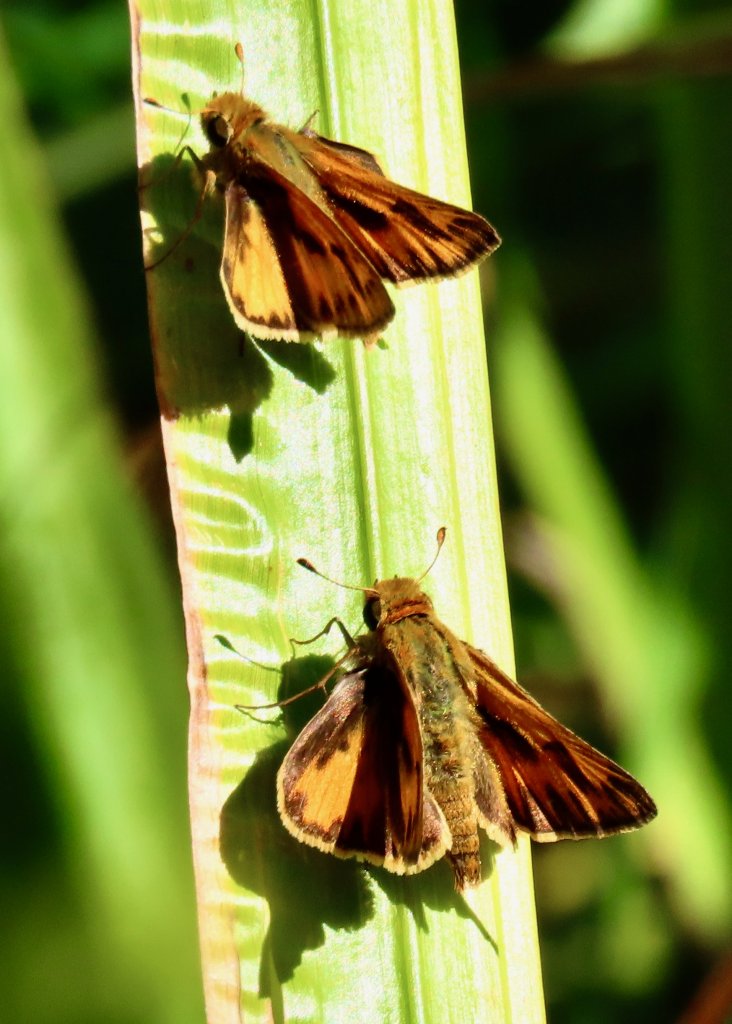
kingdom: Animalia
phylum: Arthropoda
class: Insecta
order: Lepidoptera
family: Hesperiidae
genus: Hylephila
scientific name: Hylephila phyleus
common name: Fiery Skipper
